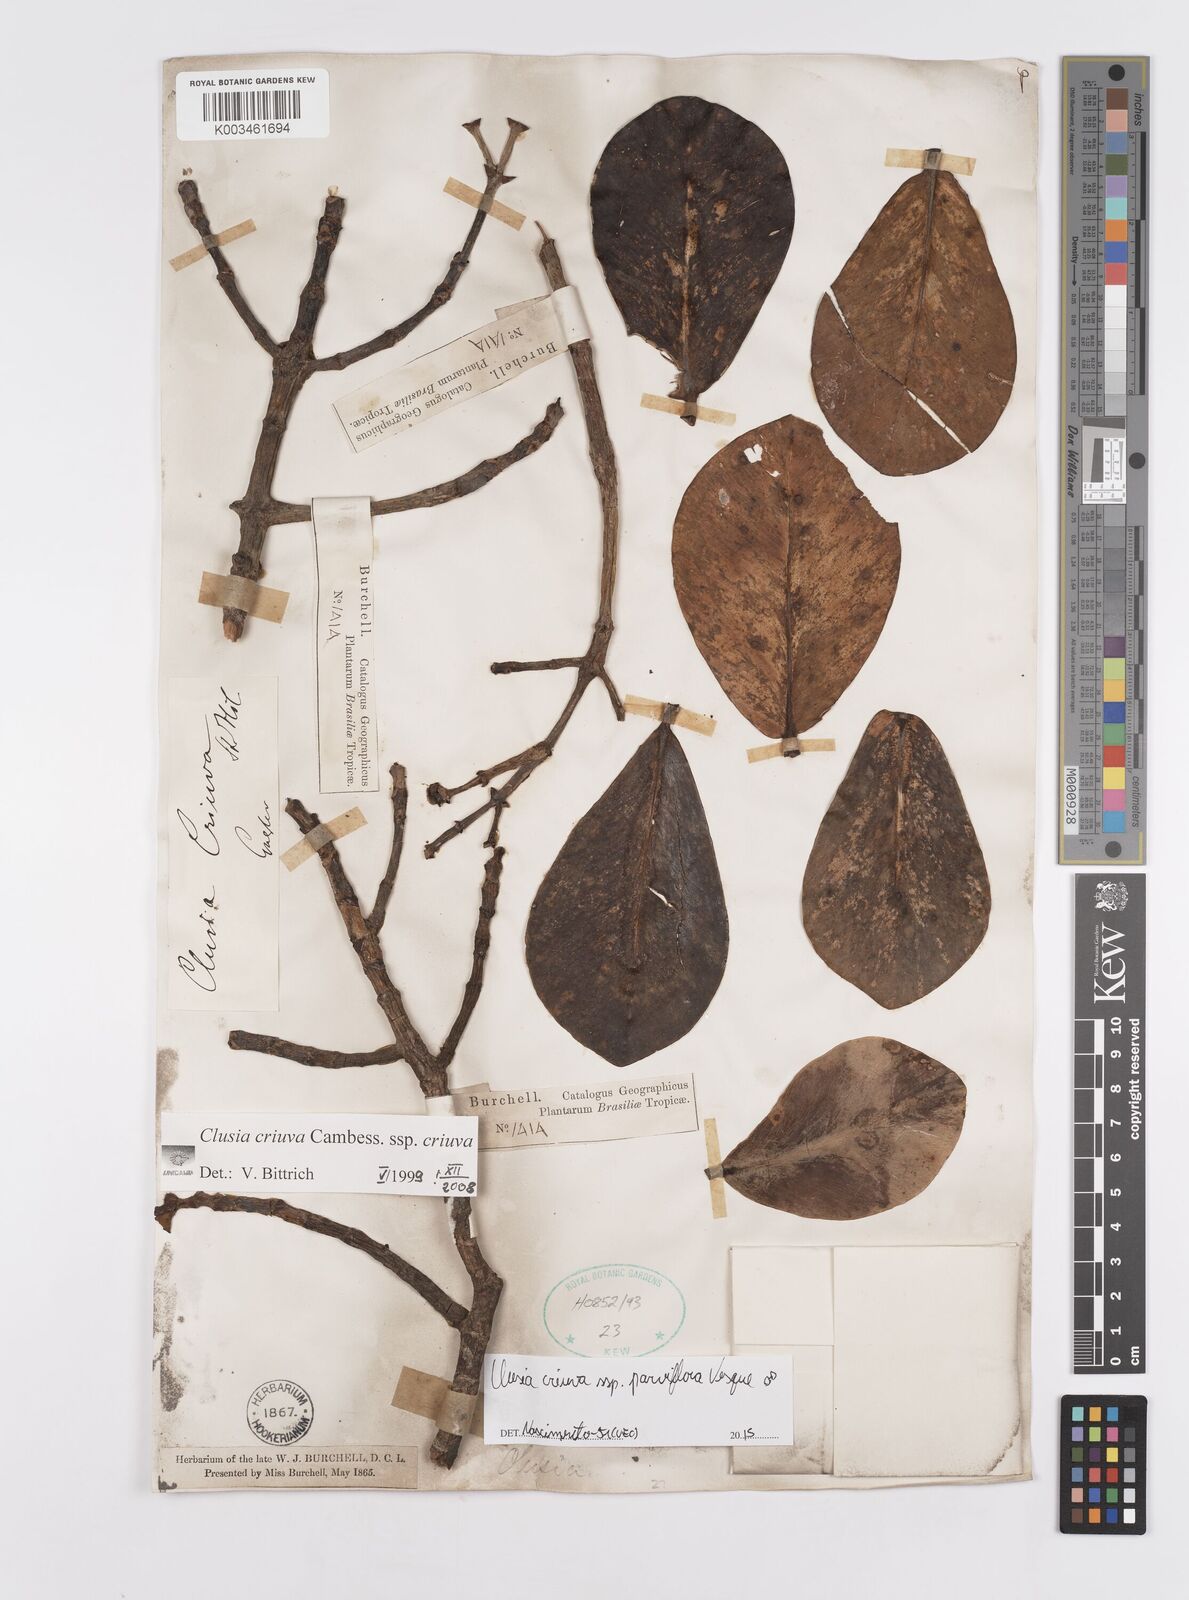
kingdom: Plantae
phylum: Tracheophyta
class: Magnoliopsida
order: Malpighiales
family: Clusiaceae
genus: Clusia
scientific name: Clusia criuva
